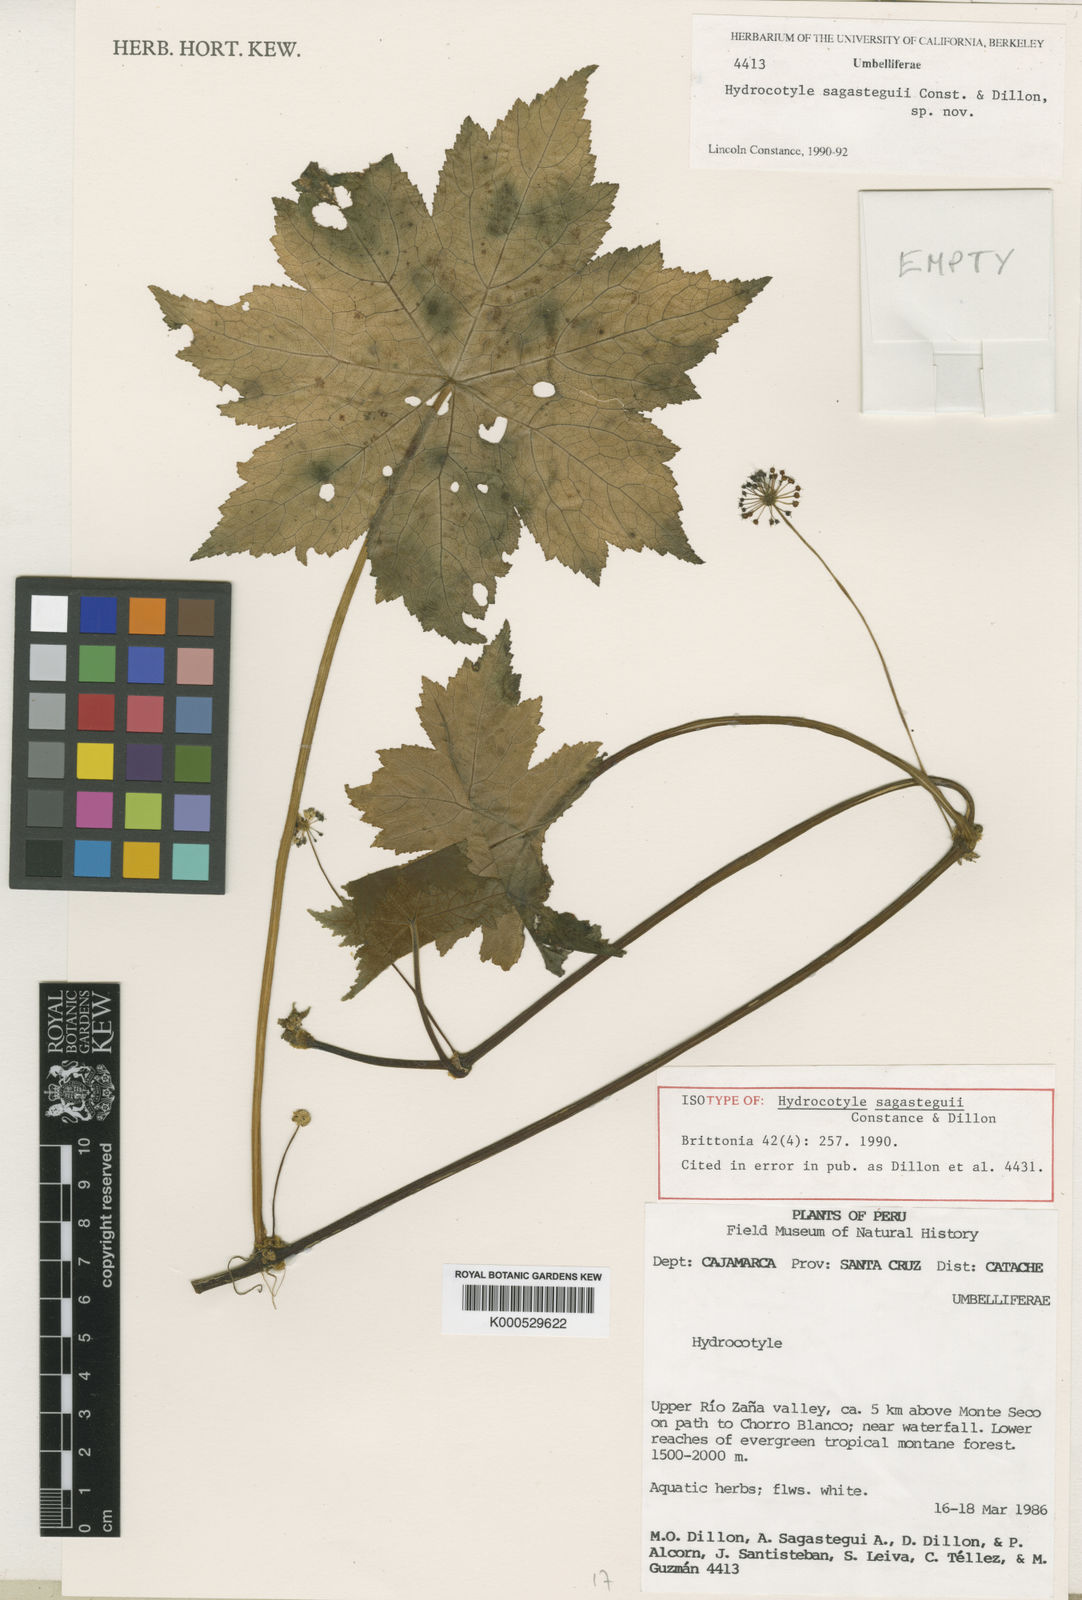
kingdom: Plantae
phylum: Tracheophyta
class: Magnoliopsida
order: Apiales
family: Araliaceae
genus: Hydrocotyle
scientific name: Hydrocotyle sagasteguii
